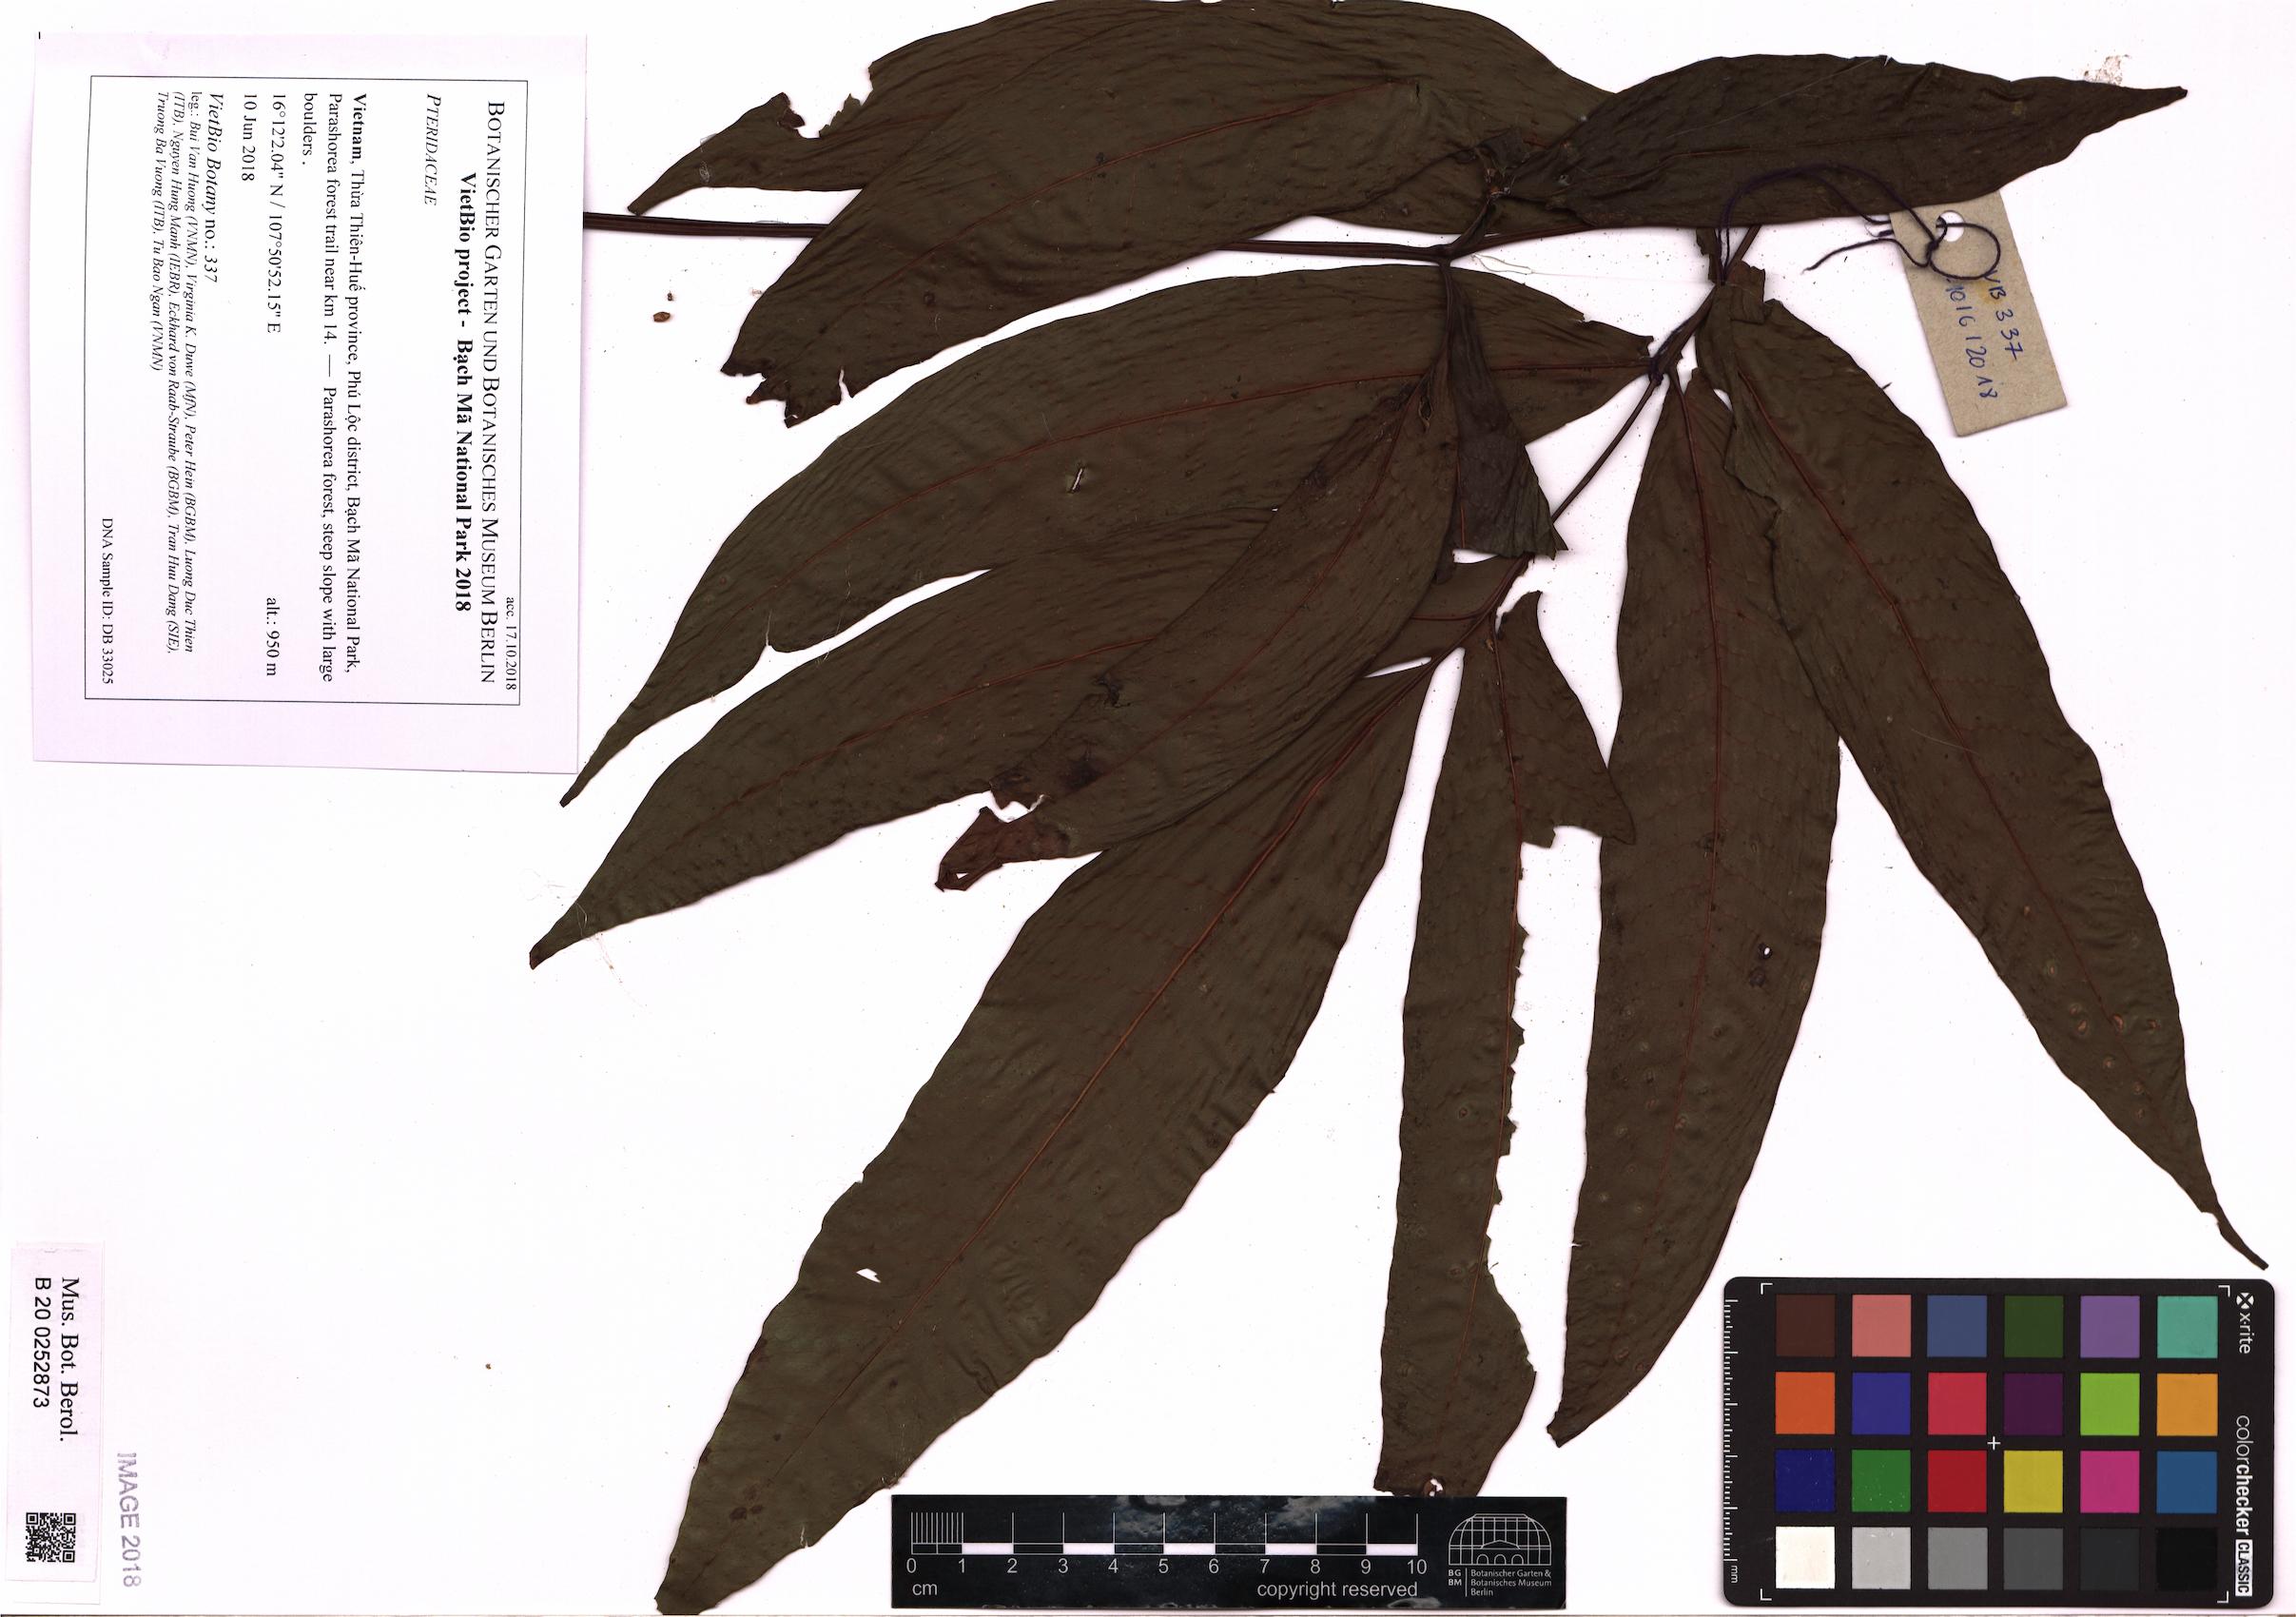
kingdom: Plantae
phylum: Tracheophyta
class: Polypodiopsida
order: Polypodiales
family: Pteridaceae
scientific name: Pteridaceae
